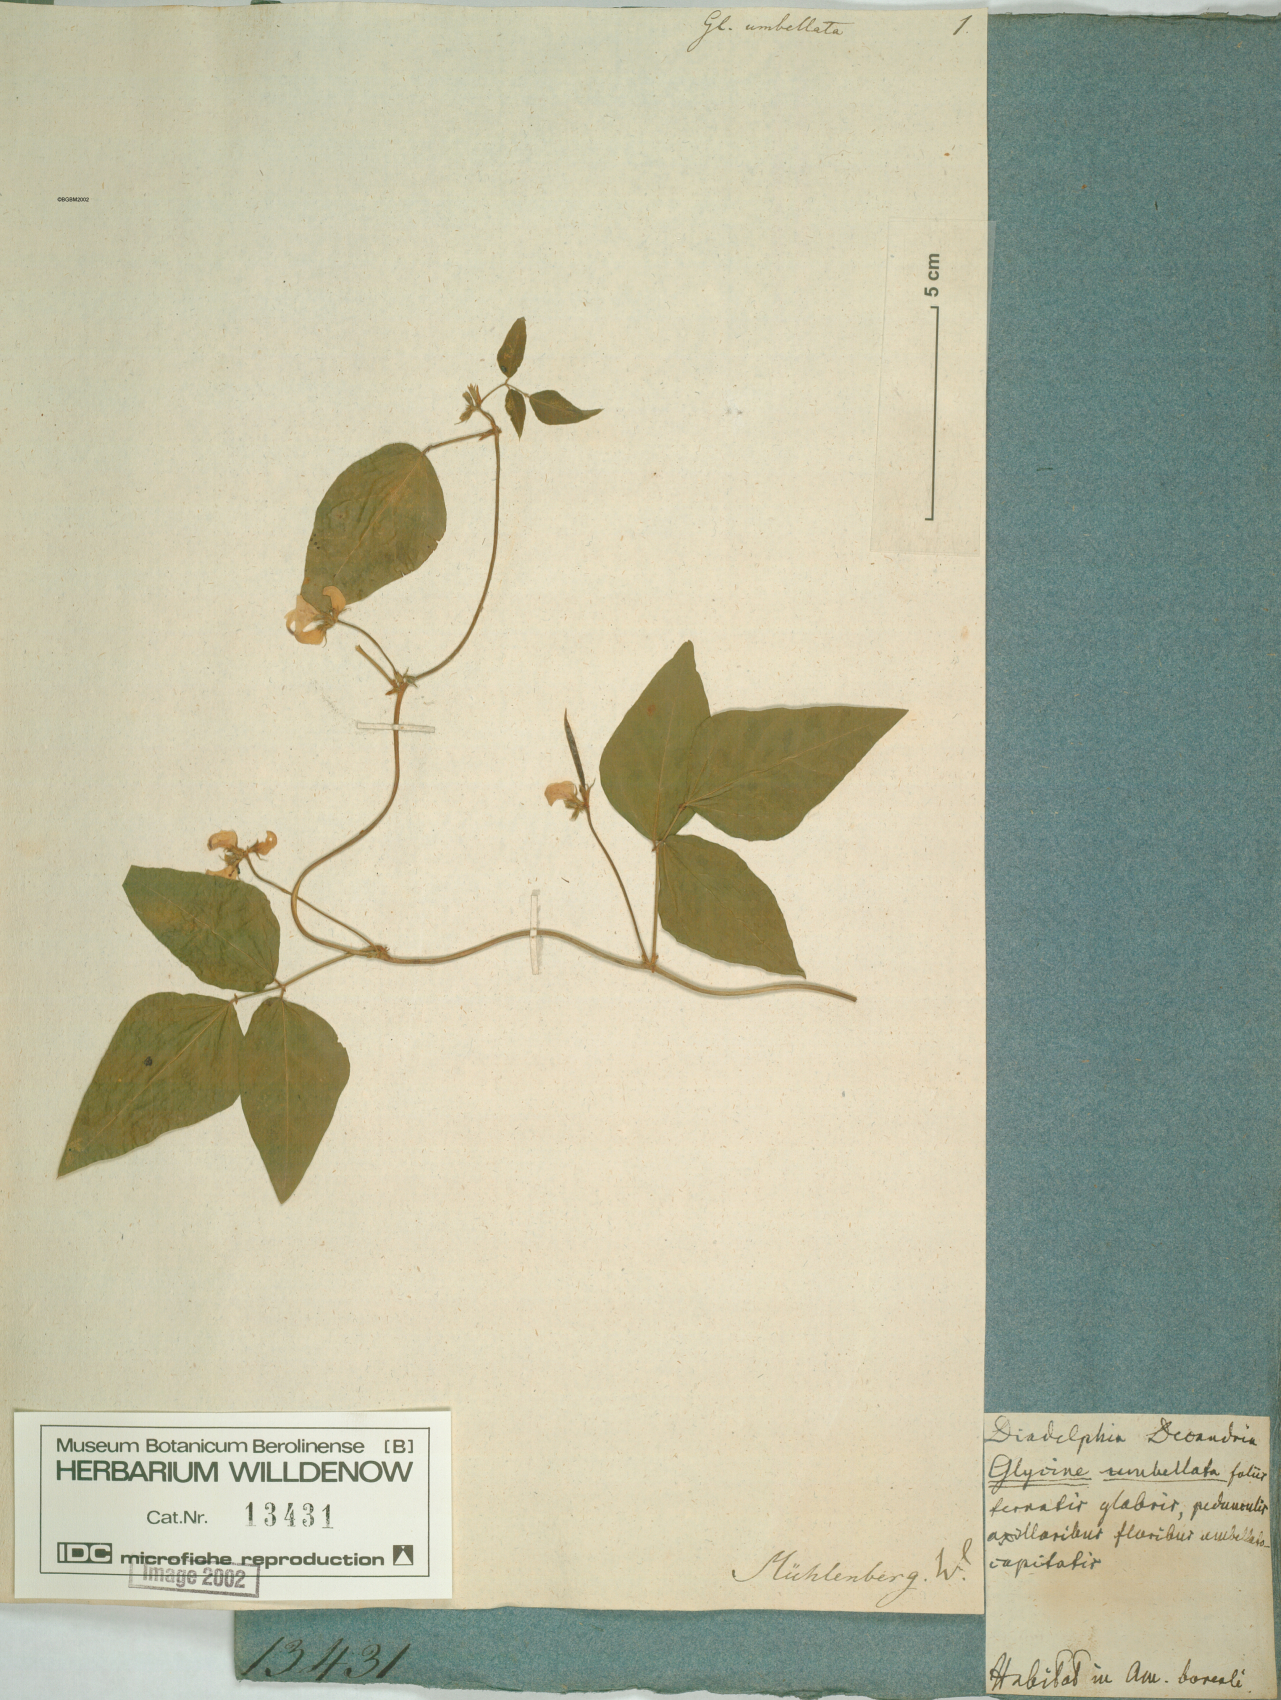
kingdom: Plantae
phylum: Tracheophyta
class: Magnoliopsida
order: Fabales
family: Fabaceae
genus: Strophostyles
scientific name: Strophostyles umbellata
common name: Perennial wild bean
